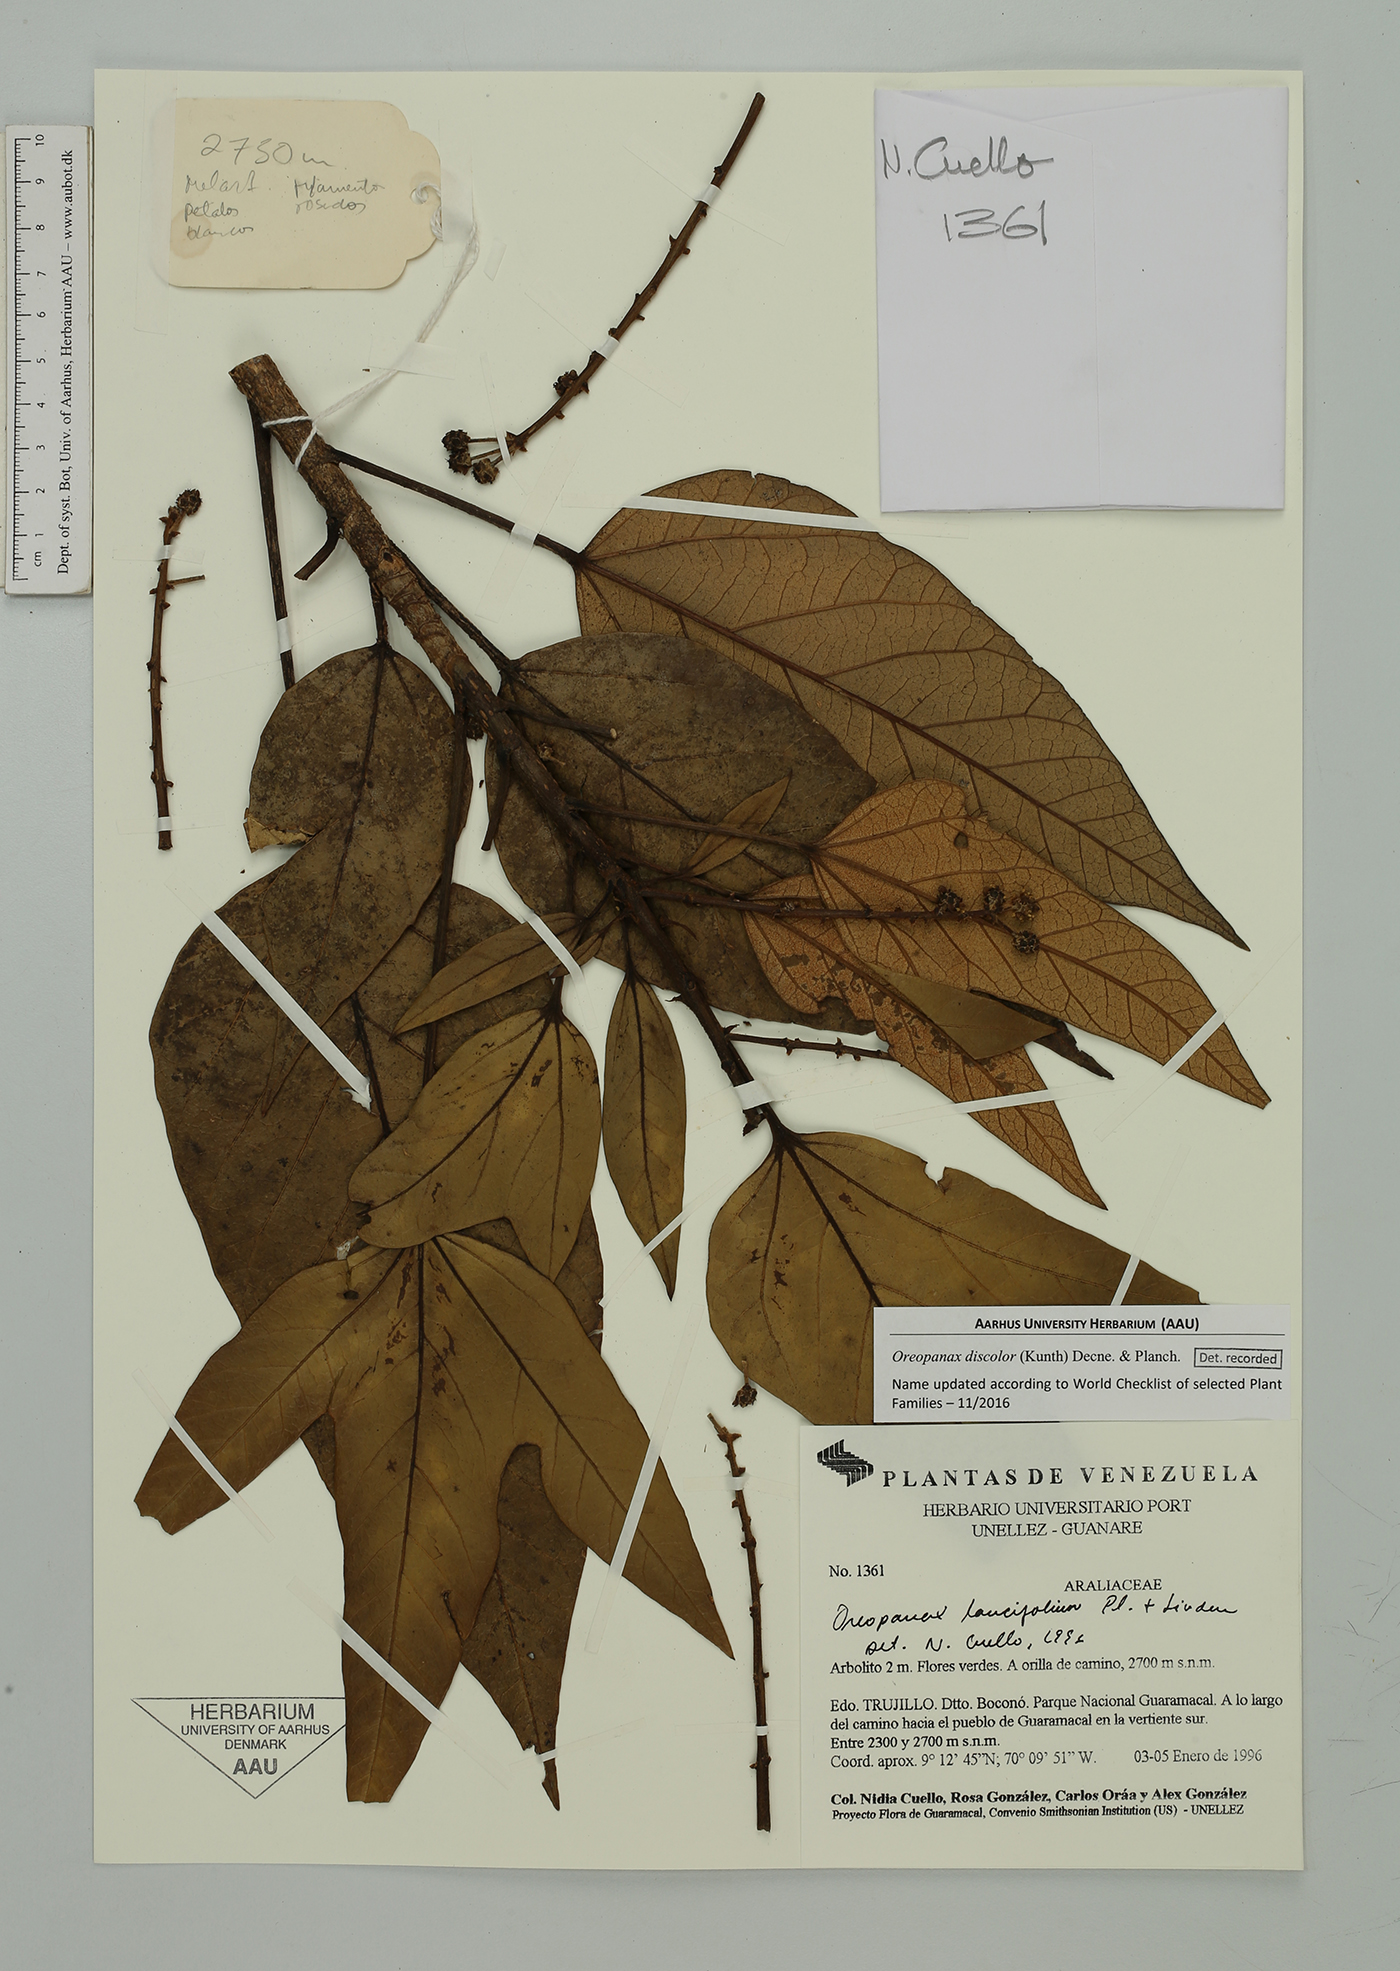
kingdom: Plantae
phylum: Tracheophyta
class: Magnoliopsida
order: Apiales
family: Araliaceae
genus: Oreopanax
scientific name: Oreopanax discolor
